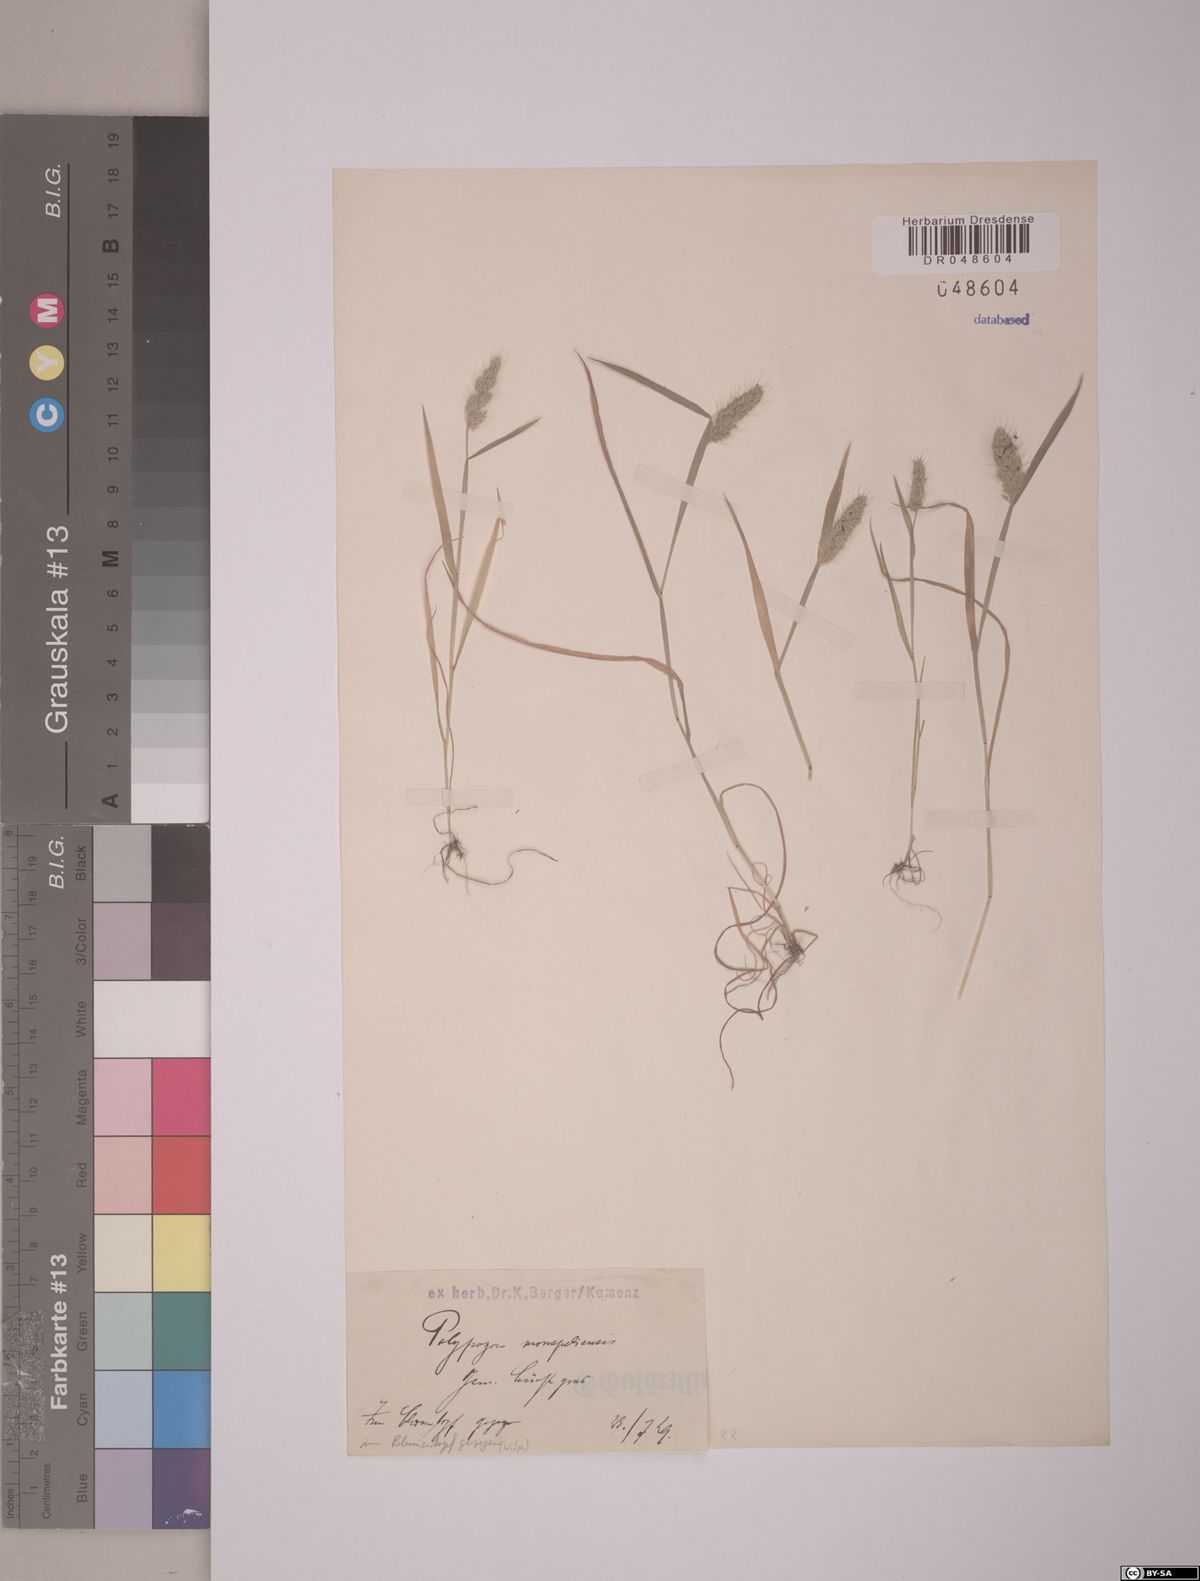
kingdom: Plantae
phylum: Tracheophyta
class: Liliopsida
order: Poales
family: Poaceae
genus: Polypogon
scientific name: Polypogon monspeliensis
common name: Annual rabbitsfoot grass
